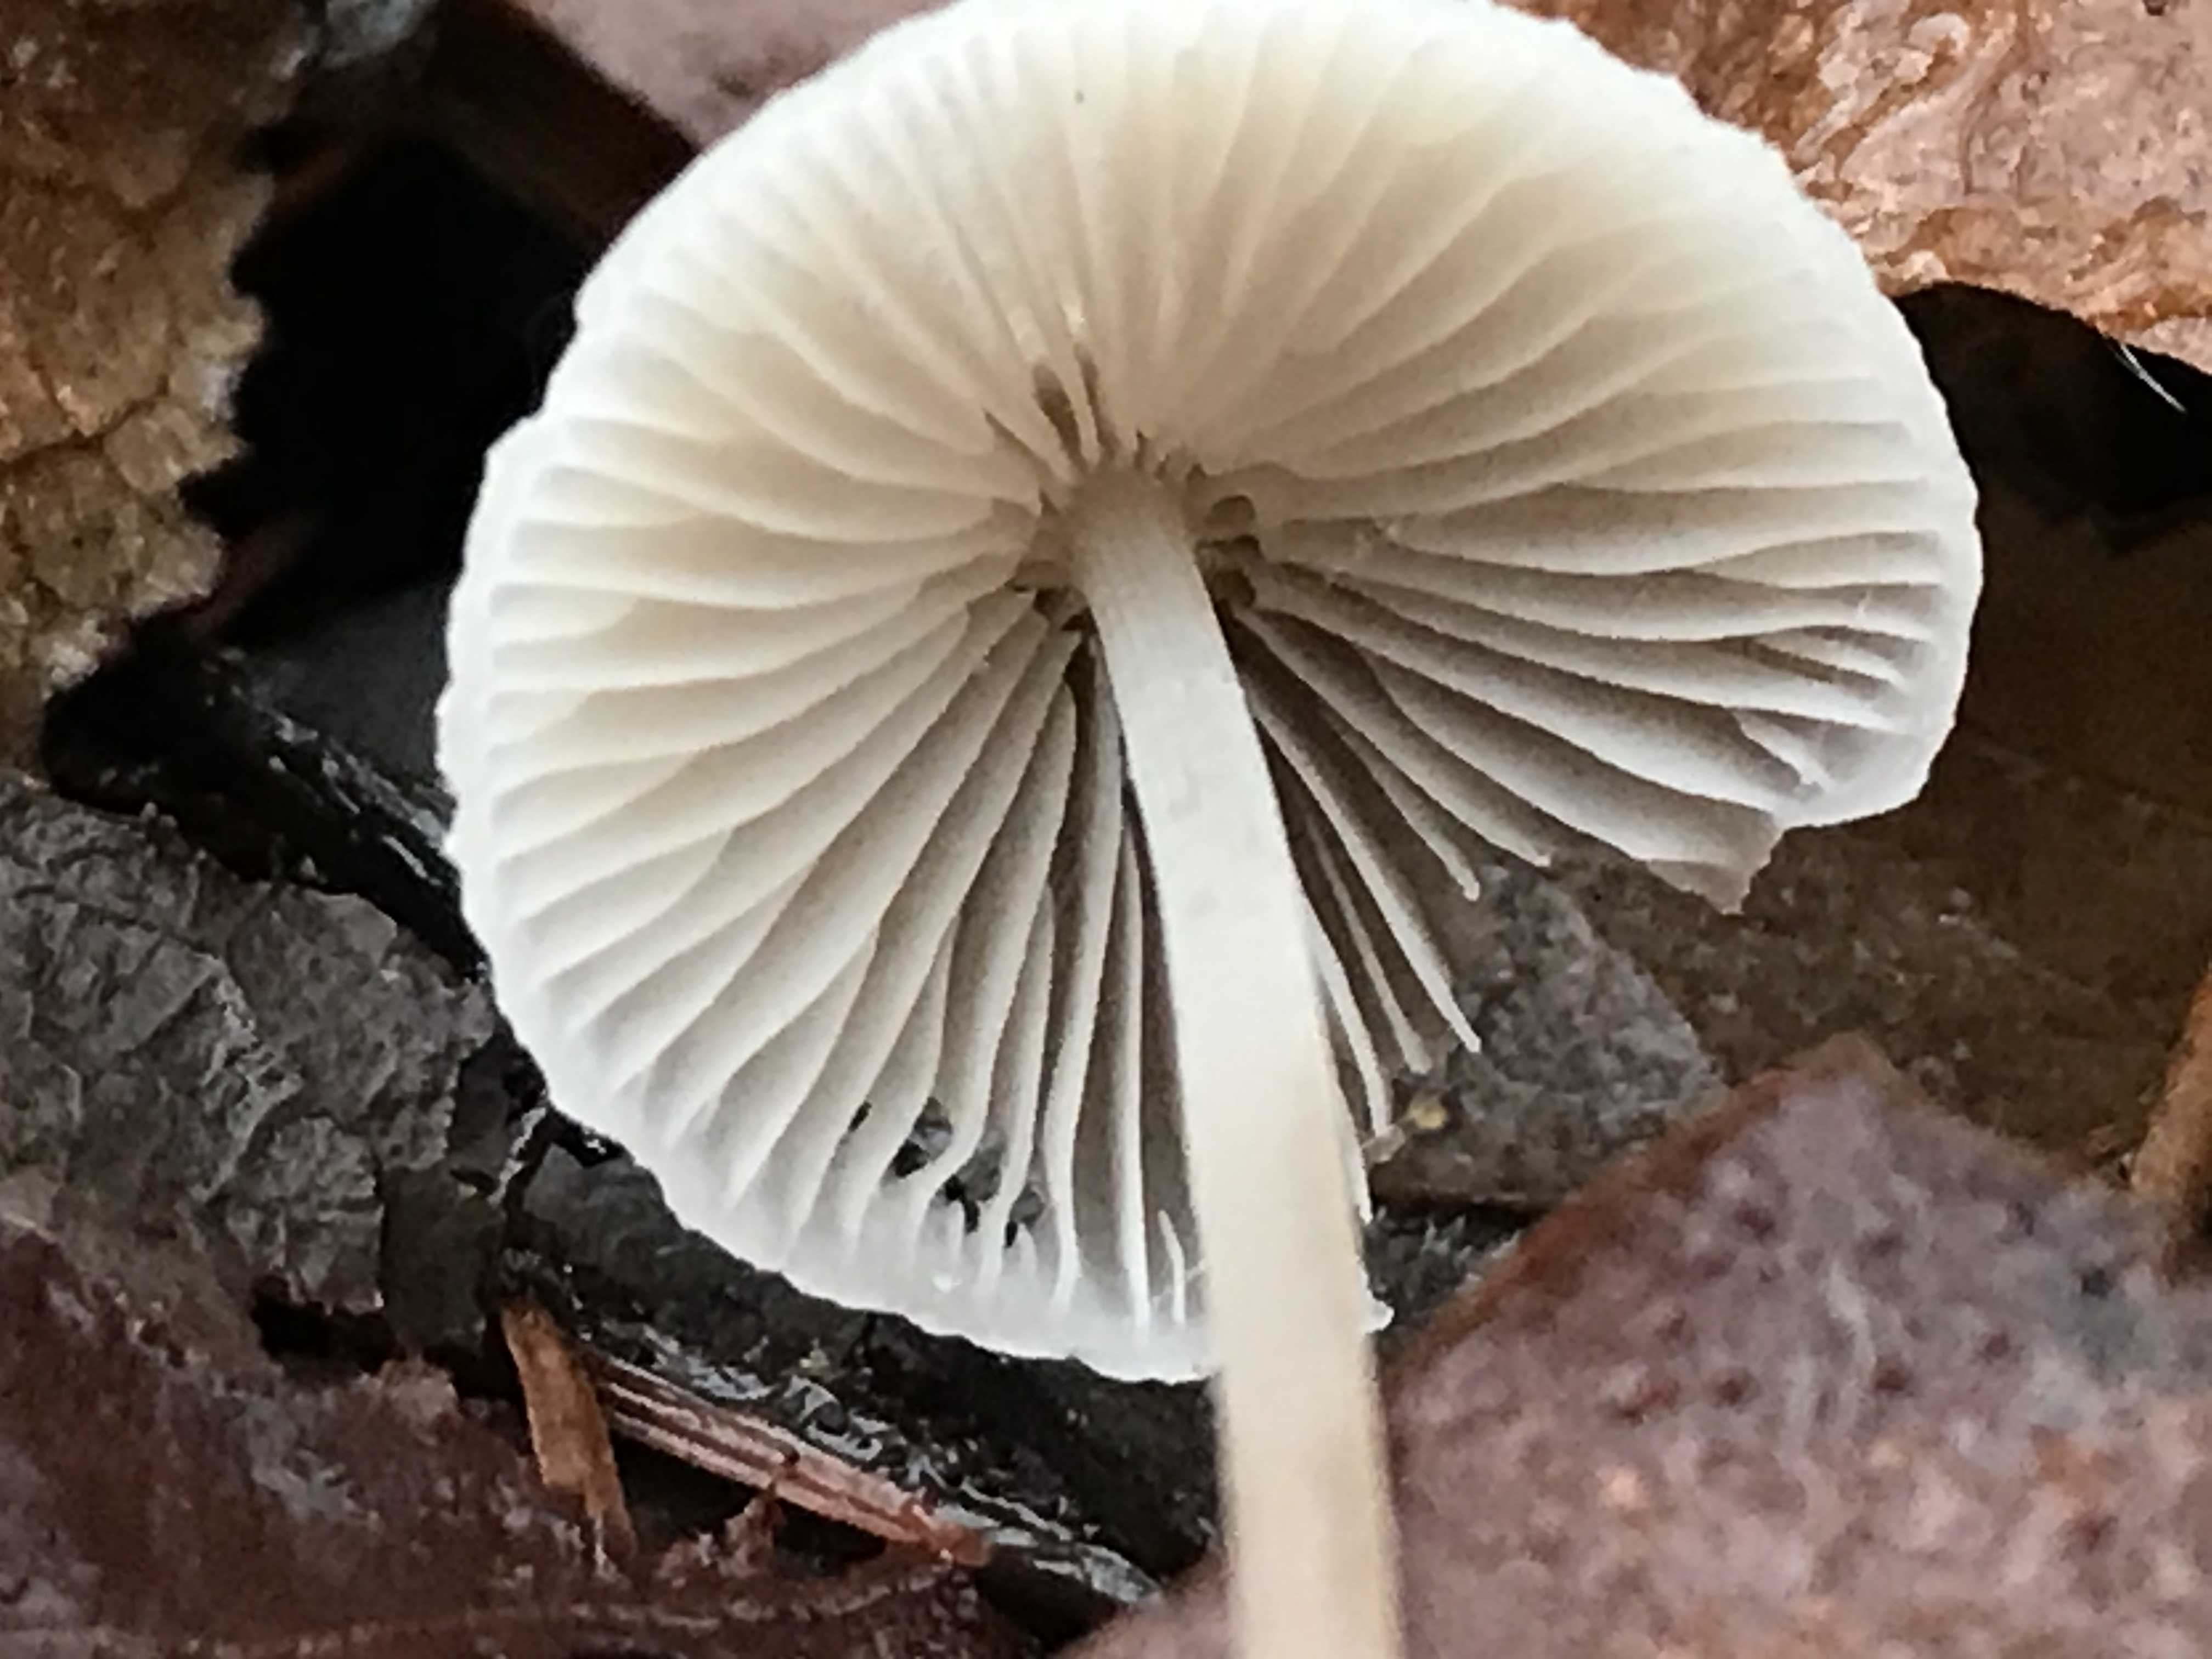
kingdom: Fungi
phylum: Basidiomycota
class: Agaricomycetes
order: Agaricales
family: Mycenaceae
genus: Mycena
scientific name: Mycena vitilis
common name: blankstokket huesvamp
